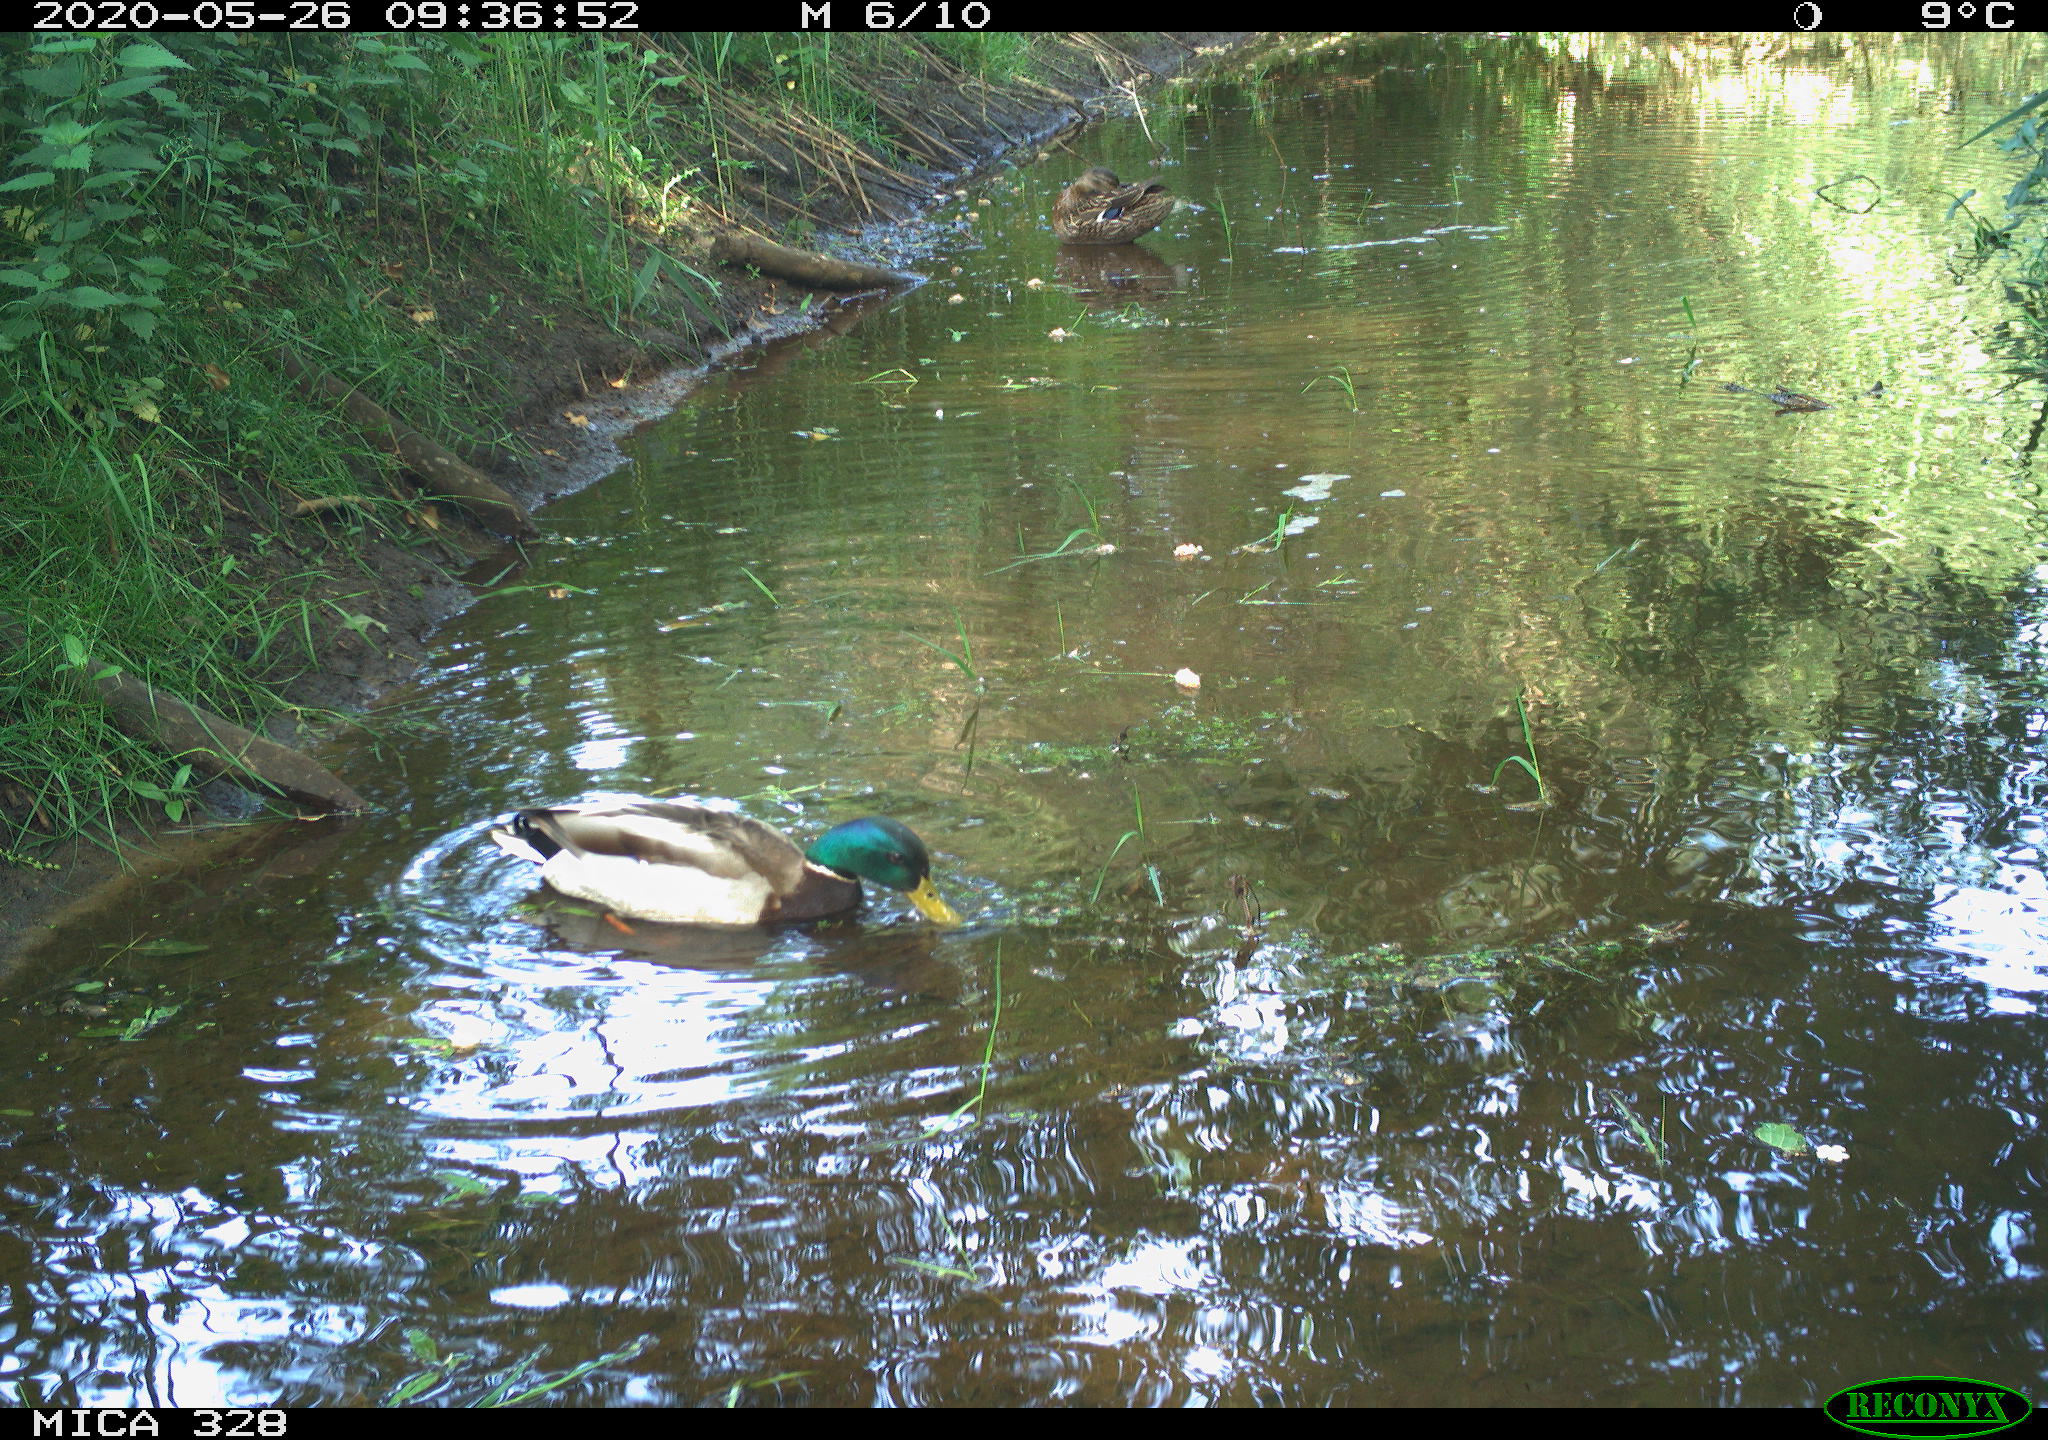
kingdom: Animalia
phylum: Chordata
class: Aves
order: Anseriformes
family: Anatidae
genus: Anas
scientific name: Anas platyrhynchos
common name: Mallard
